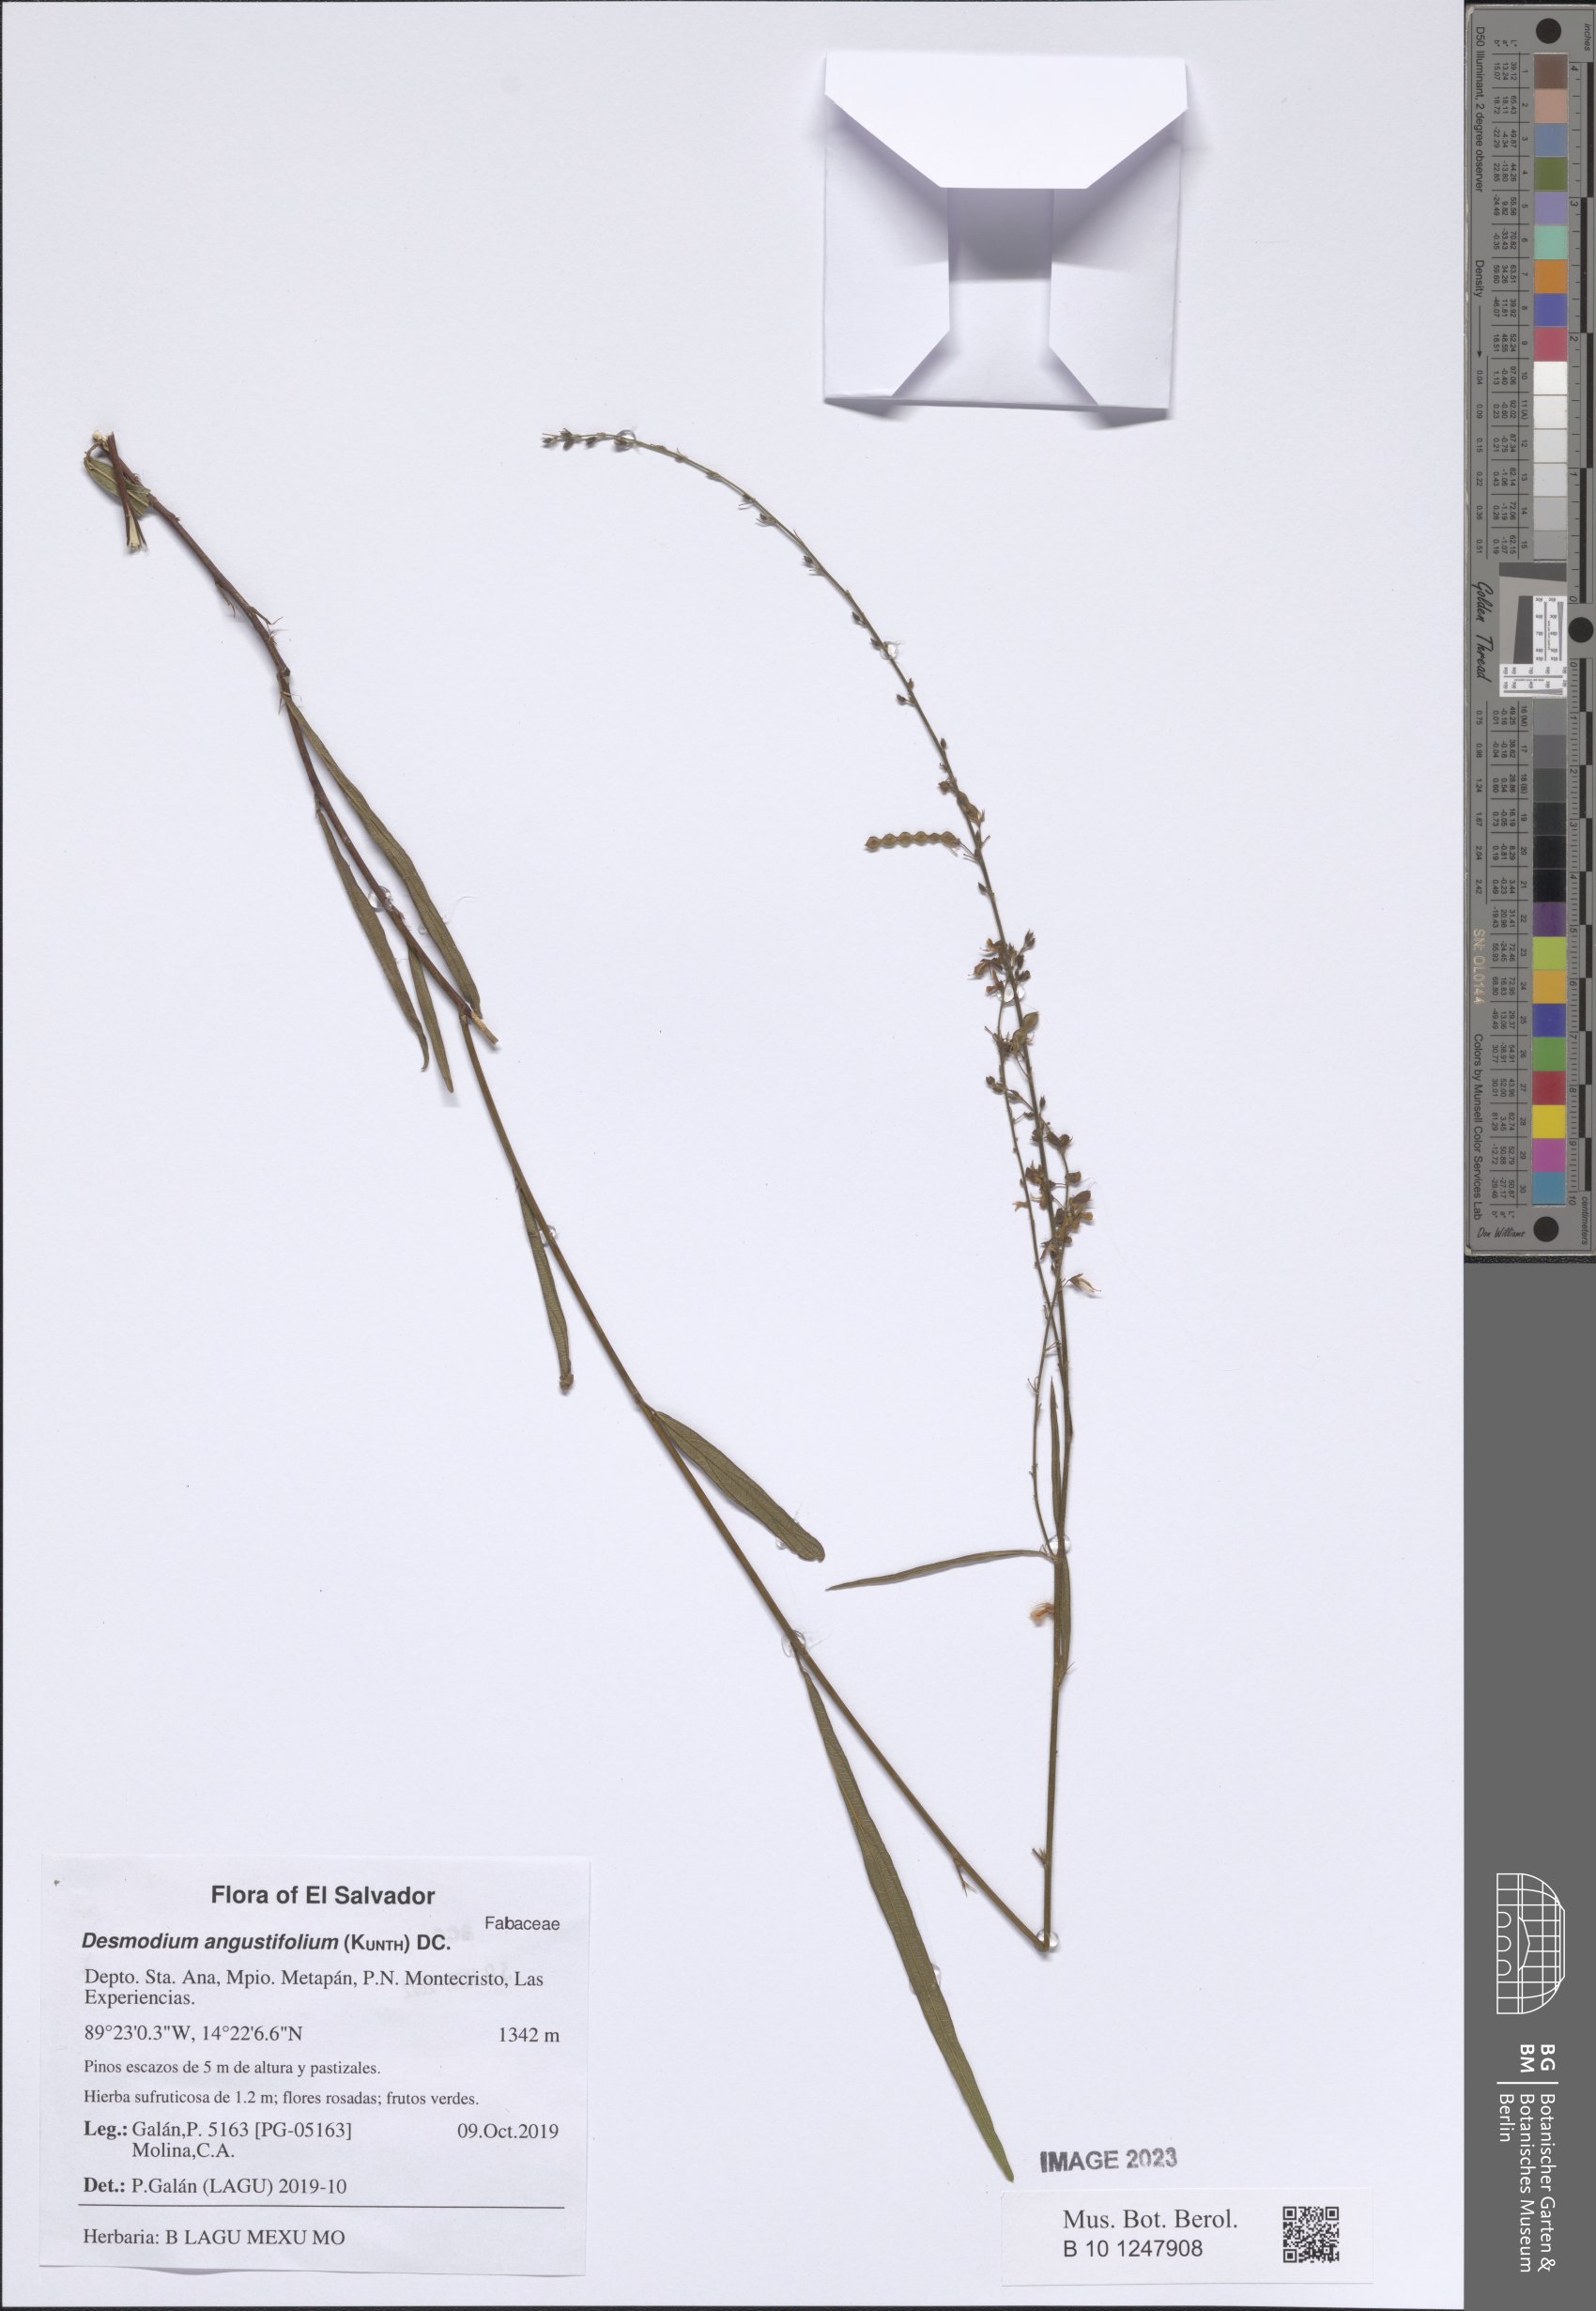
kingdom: Plantae
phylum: Tracheophyta
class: Magnoliopsida
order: Fabales
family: Fabaceae
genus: Desmodium
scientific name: Desmodium angustifolium
